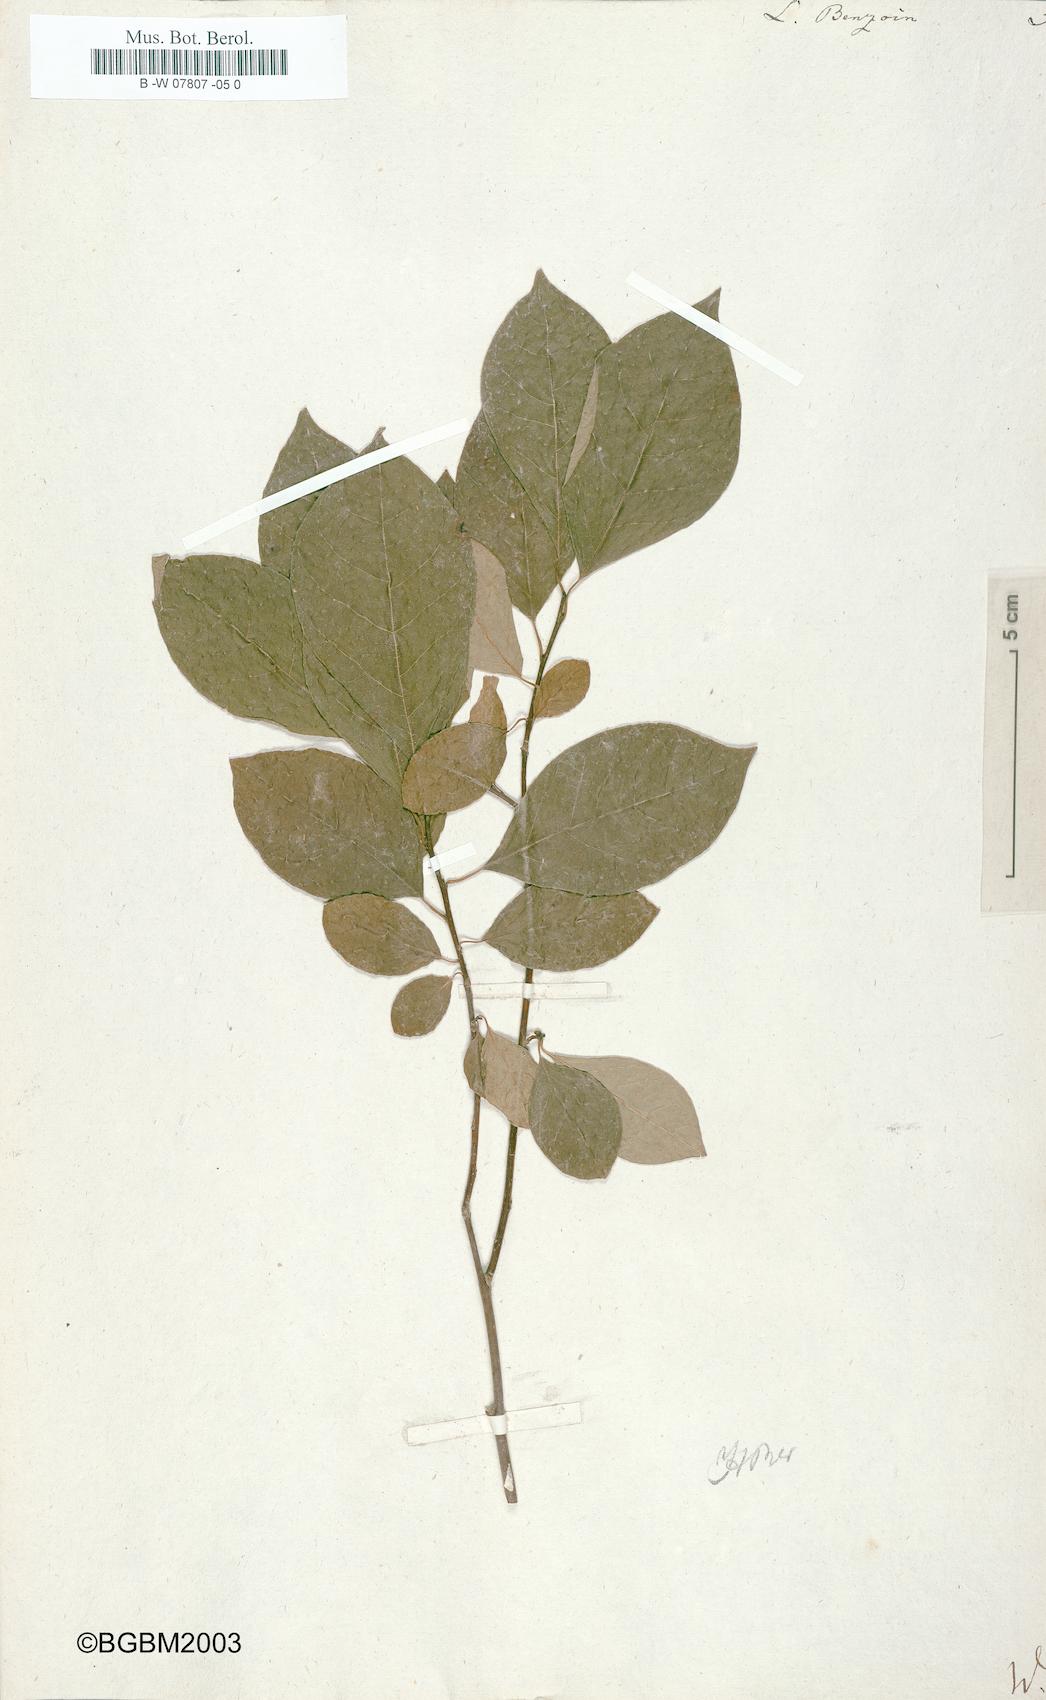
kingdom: Plantae
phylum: Tracheophyta
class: Magnoliopsida
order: Laurales
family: Lauraceae
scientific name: Lauraceae
